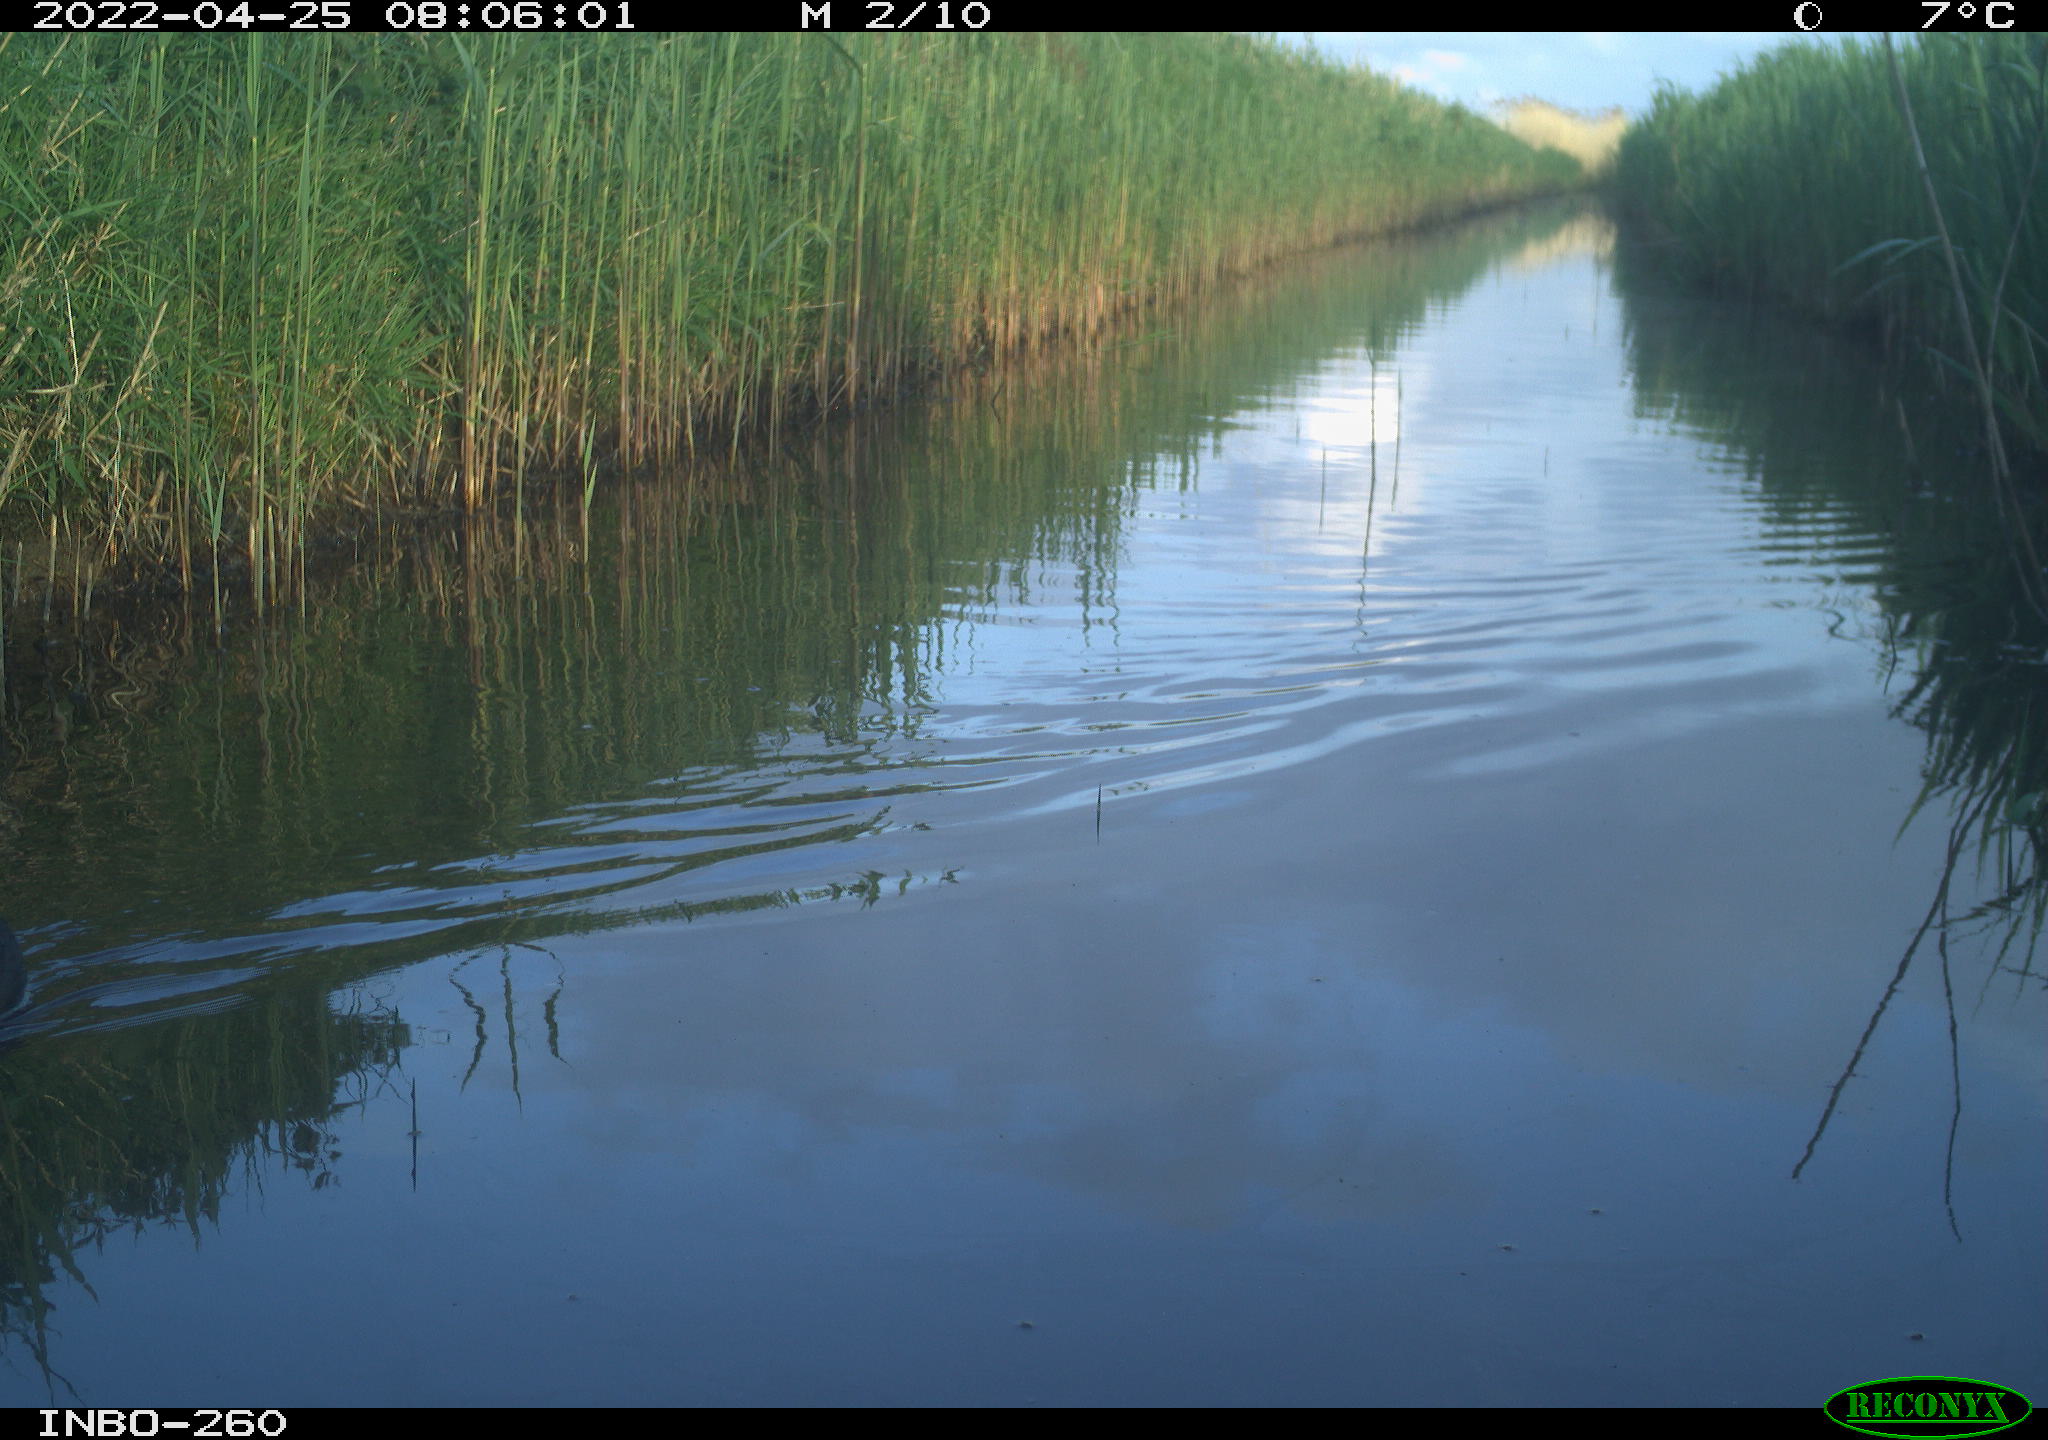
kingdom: Animalia
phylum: Chordata
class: Aves
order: Gruiformes
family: Rallidae
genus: Fulica
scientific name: Fulica atra
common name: Eurasian coot
